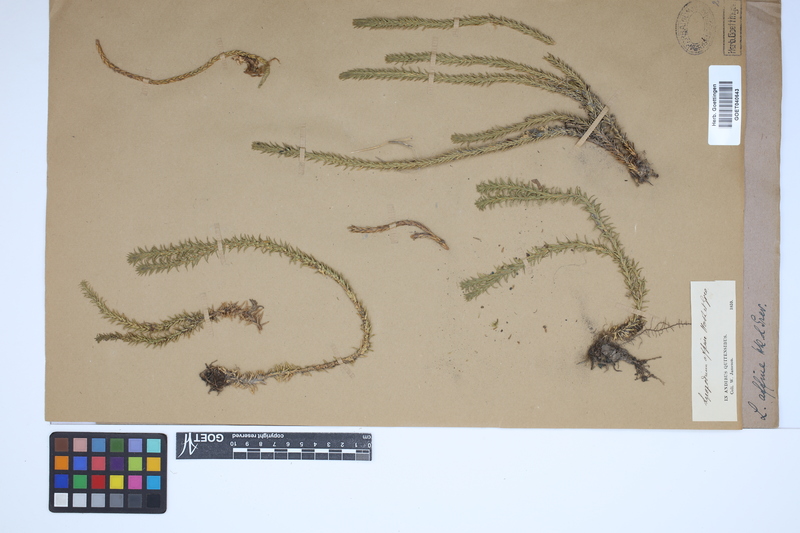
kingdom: Plantae
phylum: Tracheophyta
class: Lycopodiopsida
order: Lycopodiales
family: Lycopodiaceae
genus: Phlegmariurus
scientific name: Phlegmariurus affinis
